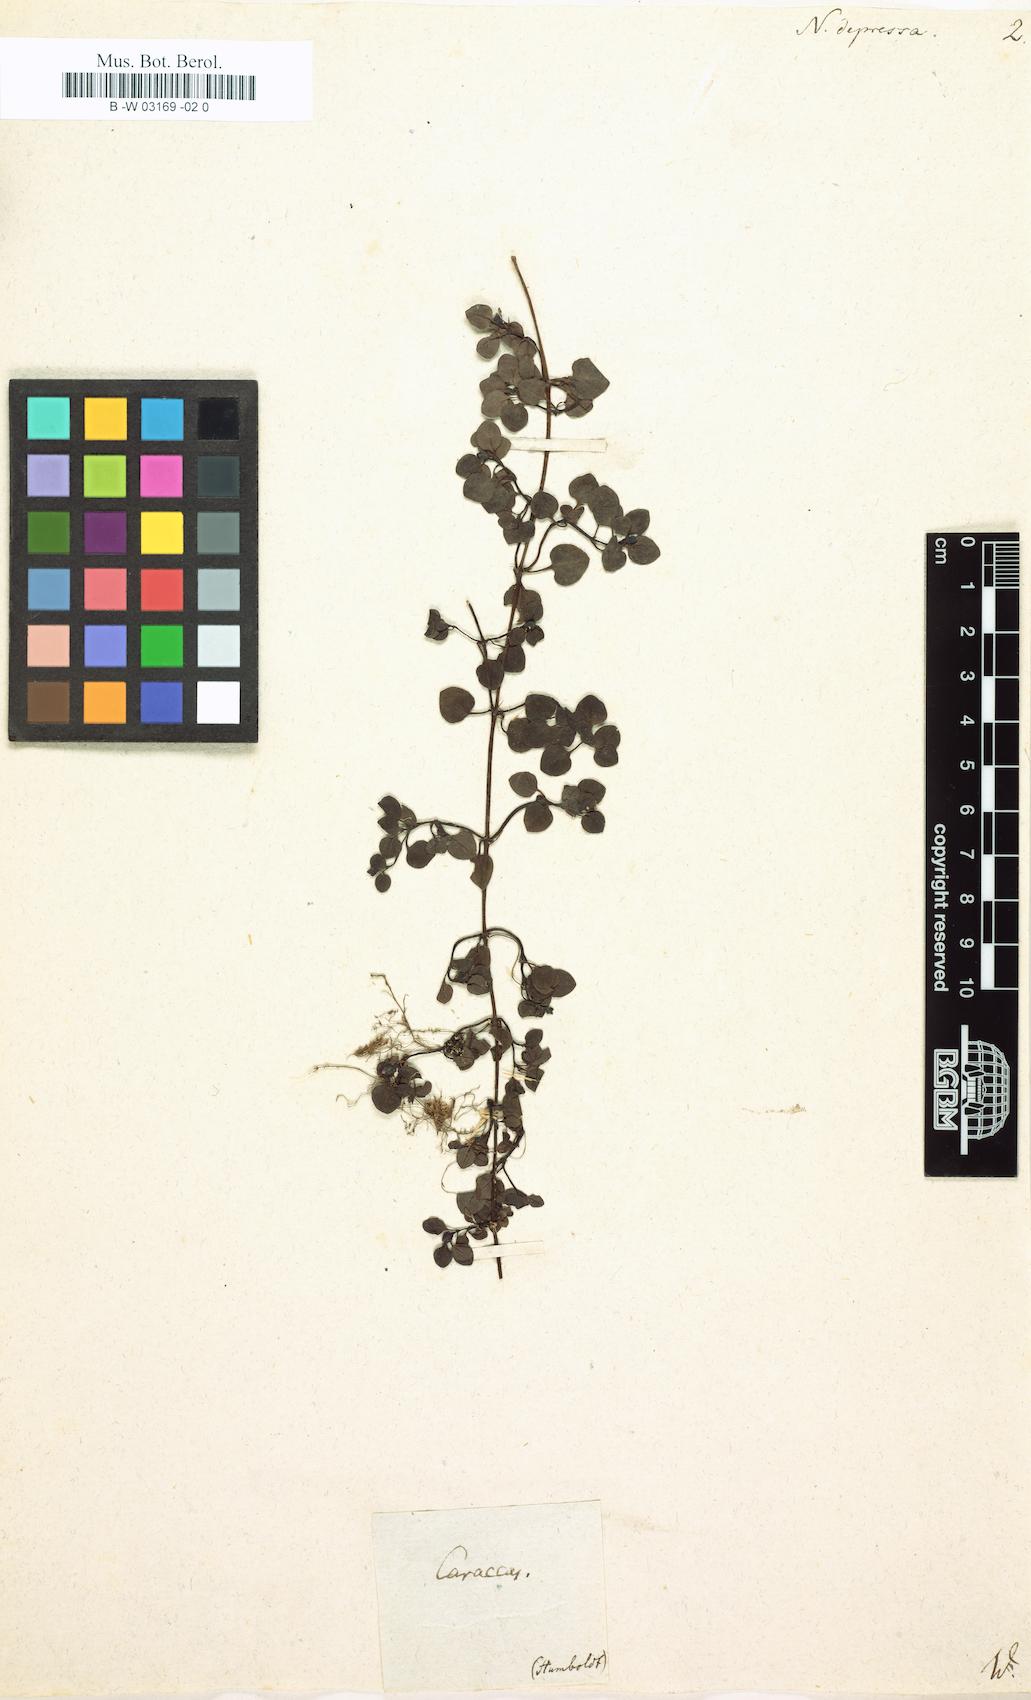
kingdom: Plantae
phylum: Tracheophyta
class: Magnoliopsida
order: Gentianales
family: Rubiaceae
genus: Nertera
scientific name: Nertera granadensis
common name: Beadplant
